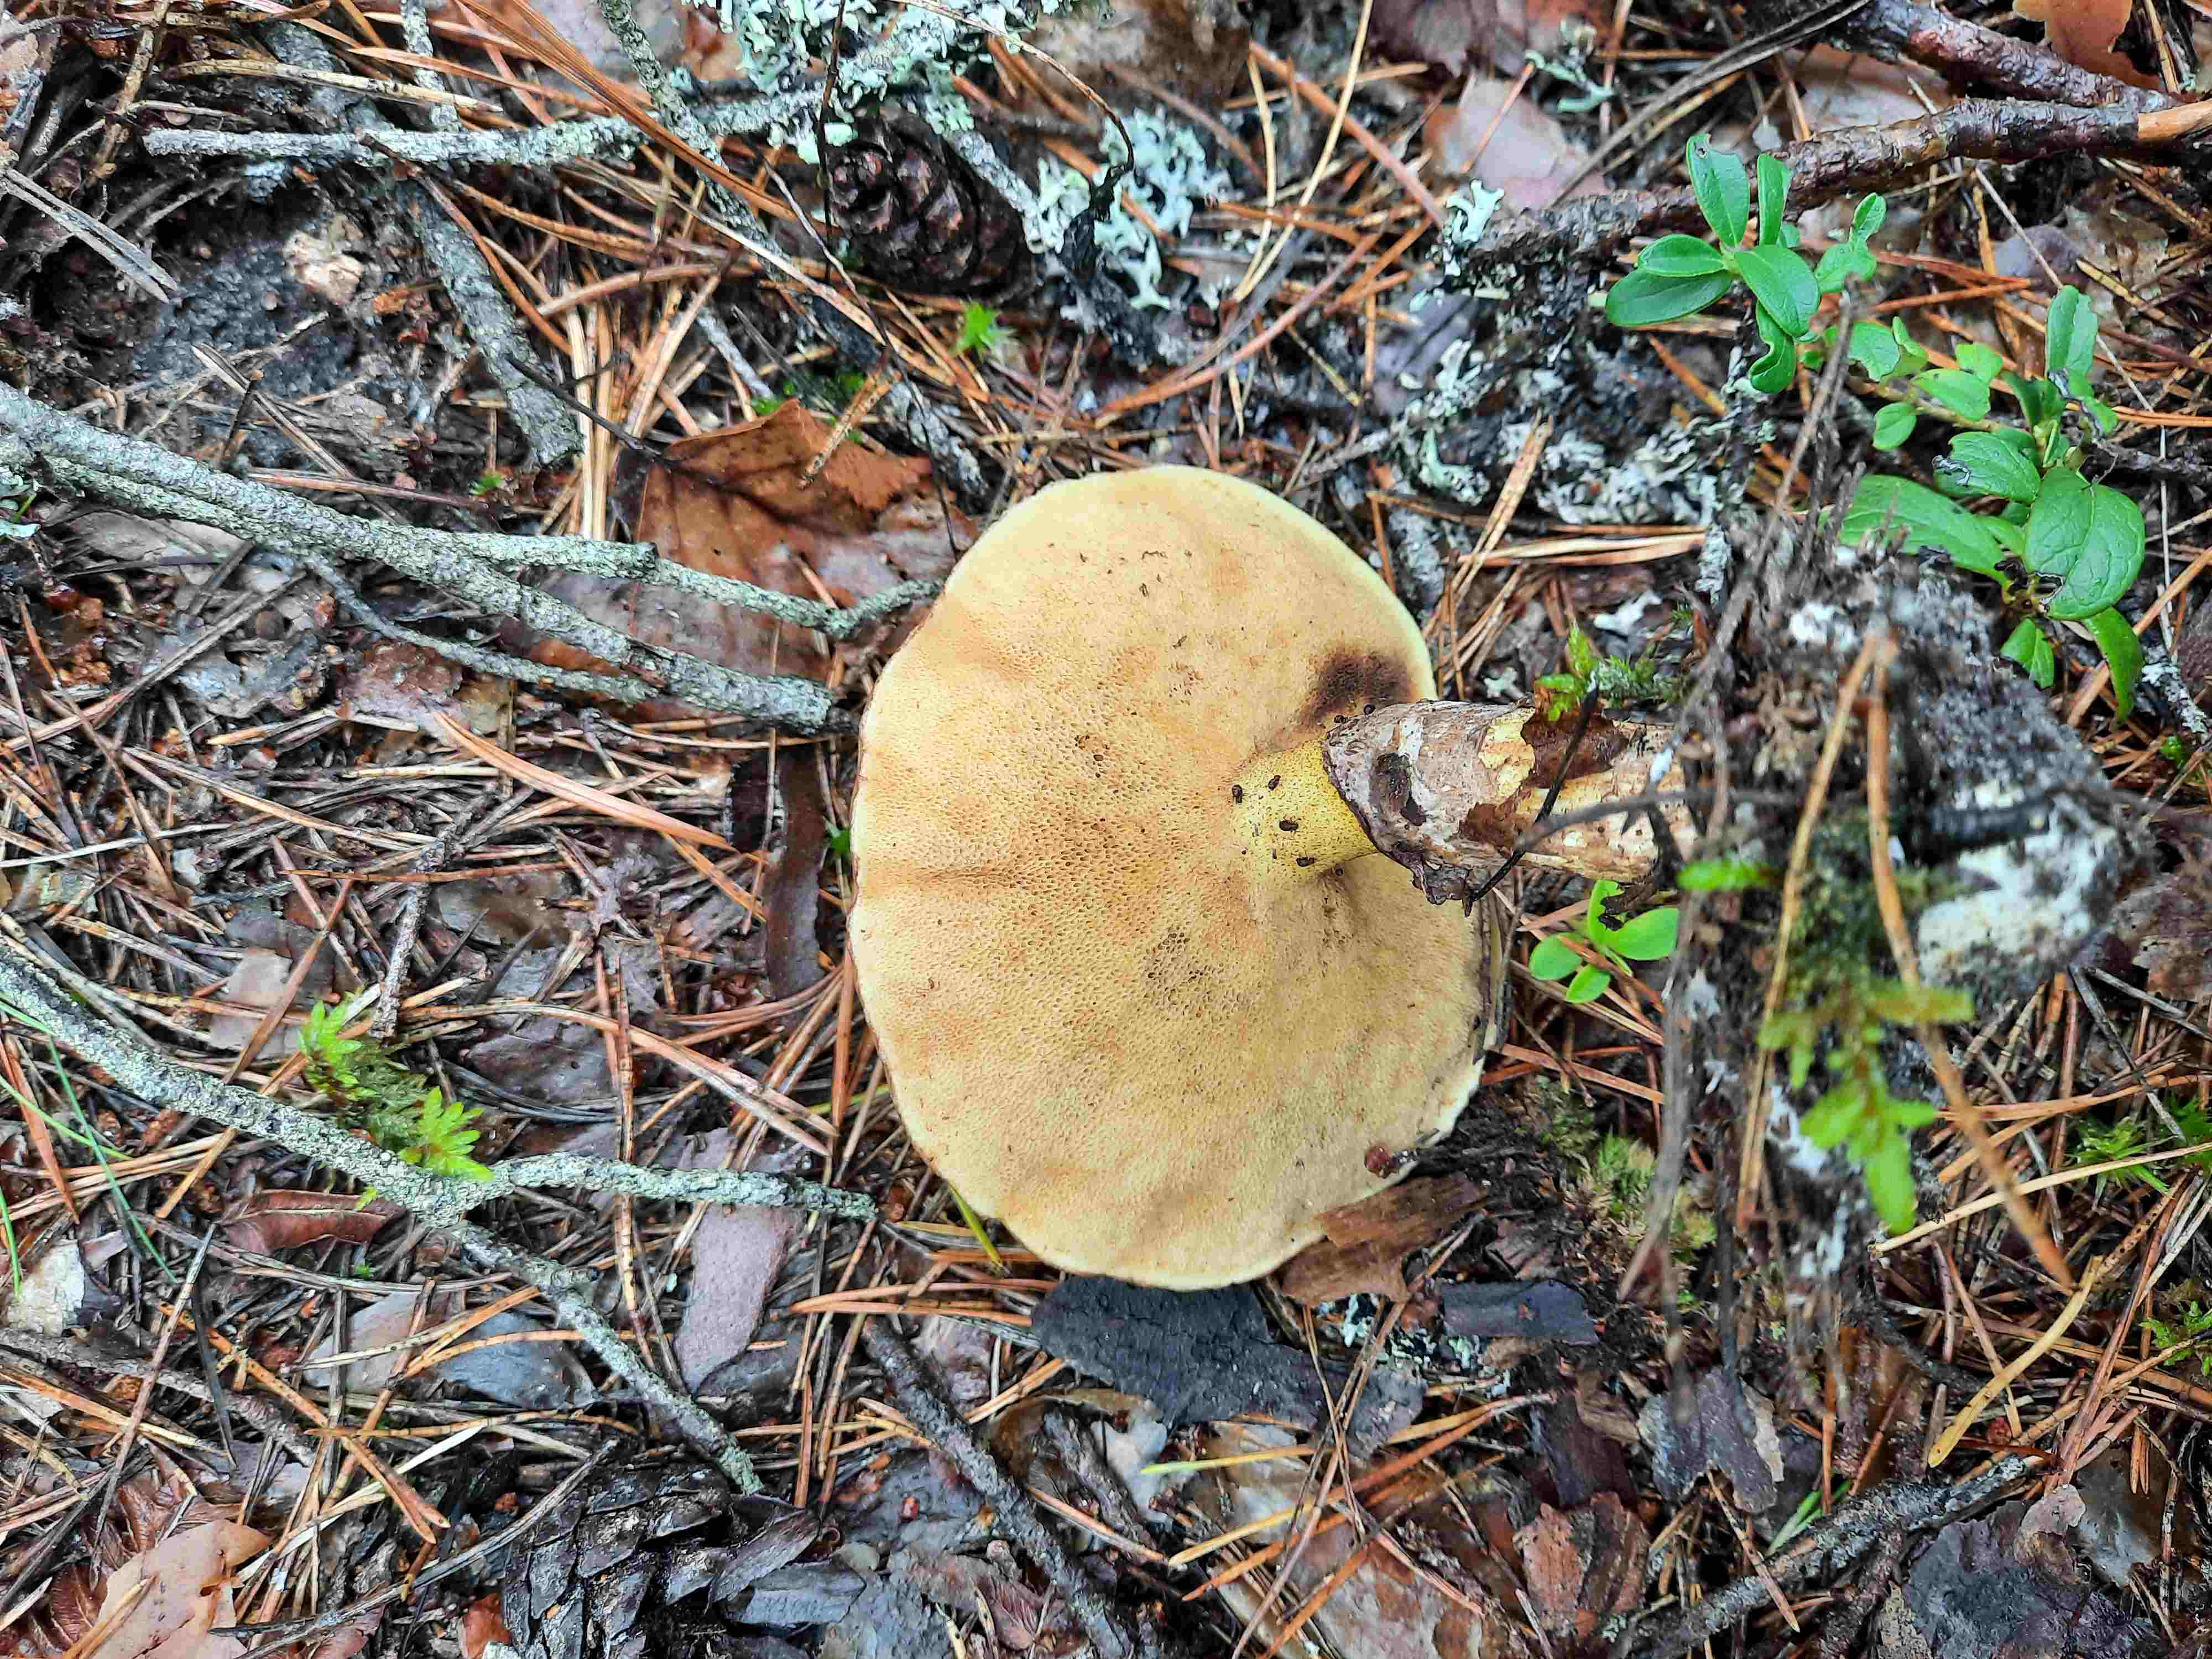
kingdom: Fungi
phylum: Basidiomycota
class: Agaricomycetes
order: Boletales
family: Suillaceae
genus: Suillus
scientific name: Suillus luteus
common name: brungul slimrørhat
